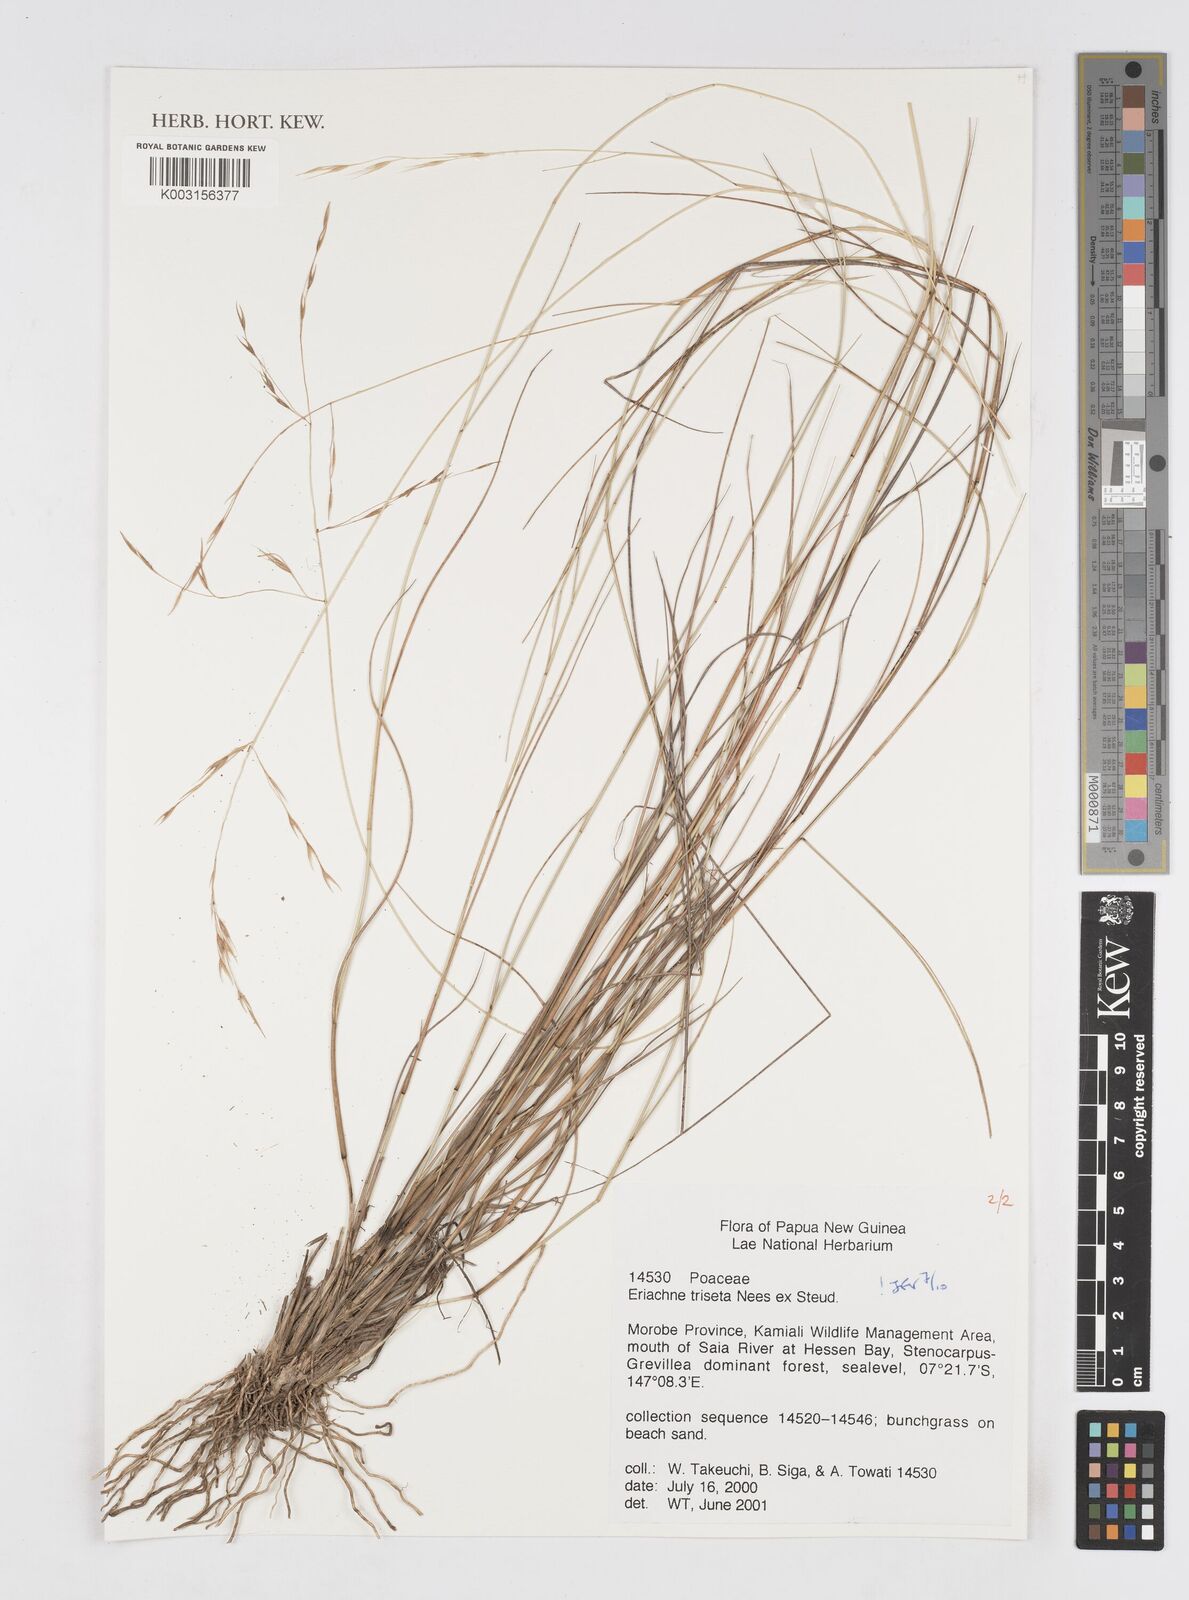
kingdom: Plantae
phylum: Tracheophyta
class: Liliopsida
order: Poales
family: Poaceae
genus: Eriachne
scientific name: Eriachne triseta
